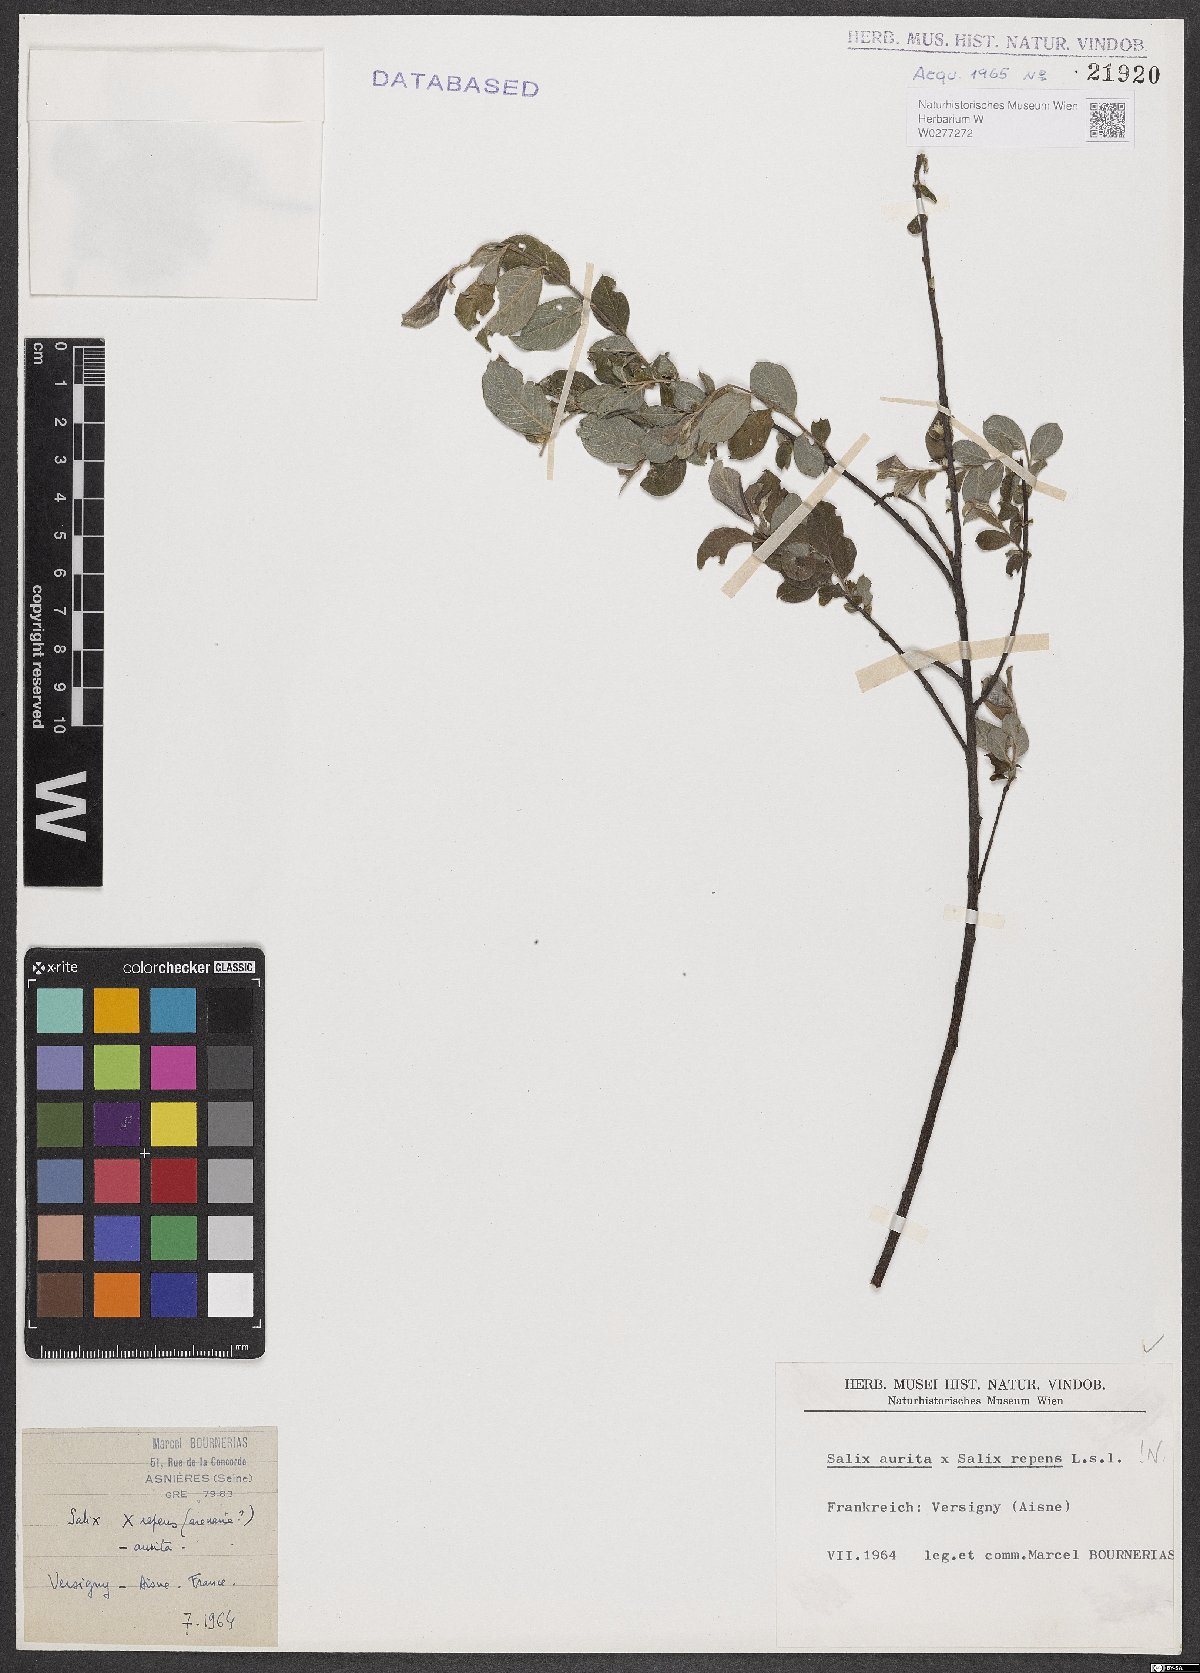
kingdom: Plantae
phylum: Tracheophyta
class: Magnoliopsida
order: Malpighiales
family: Salicaceae
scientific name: Salicaceae
